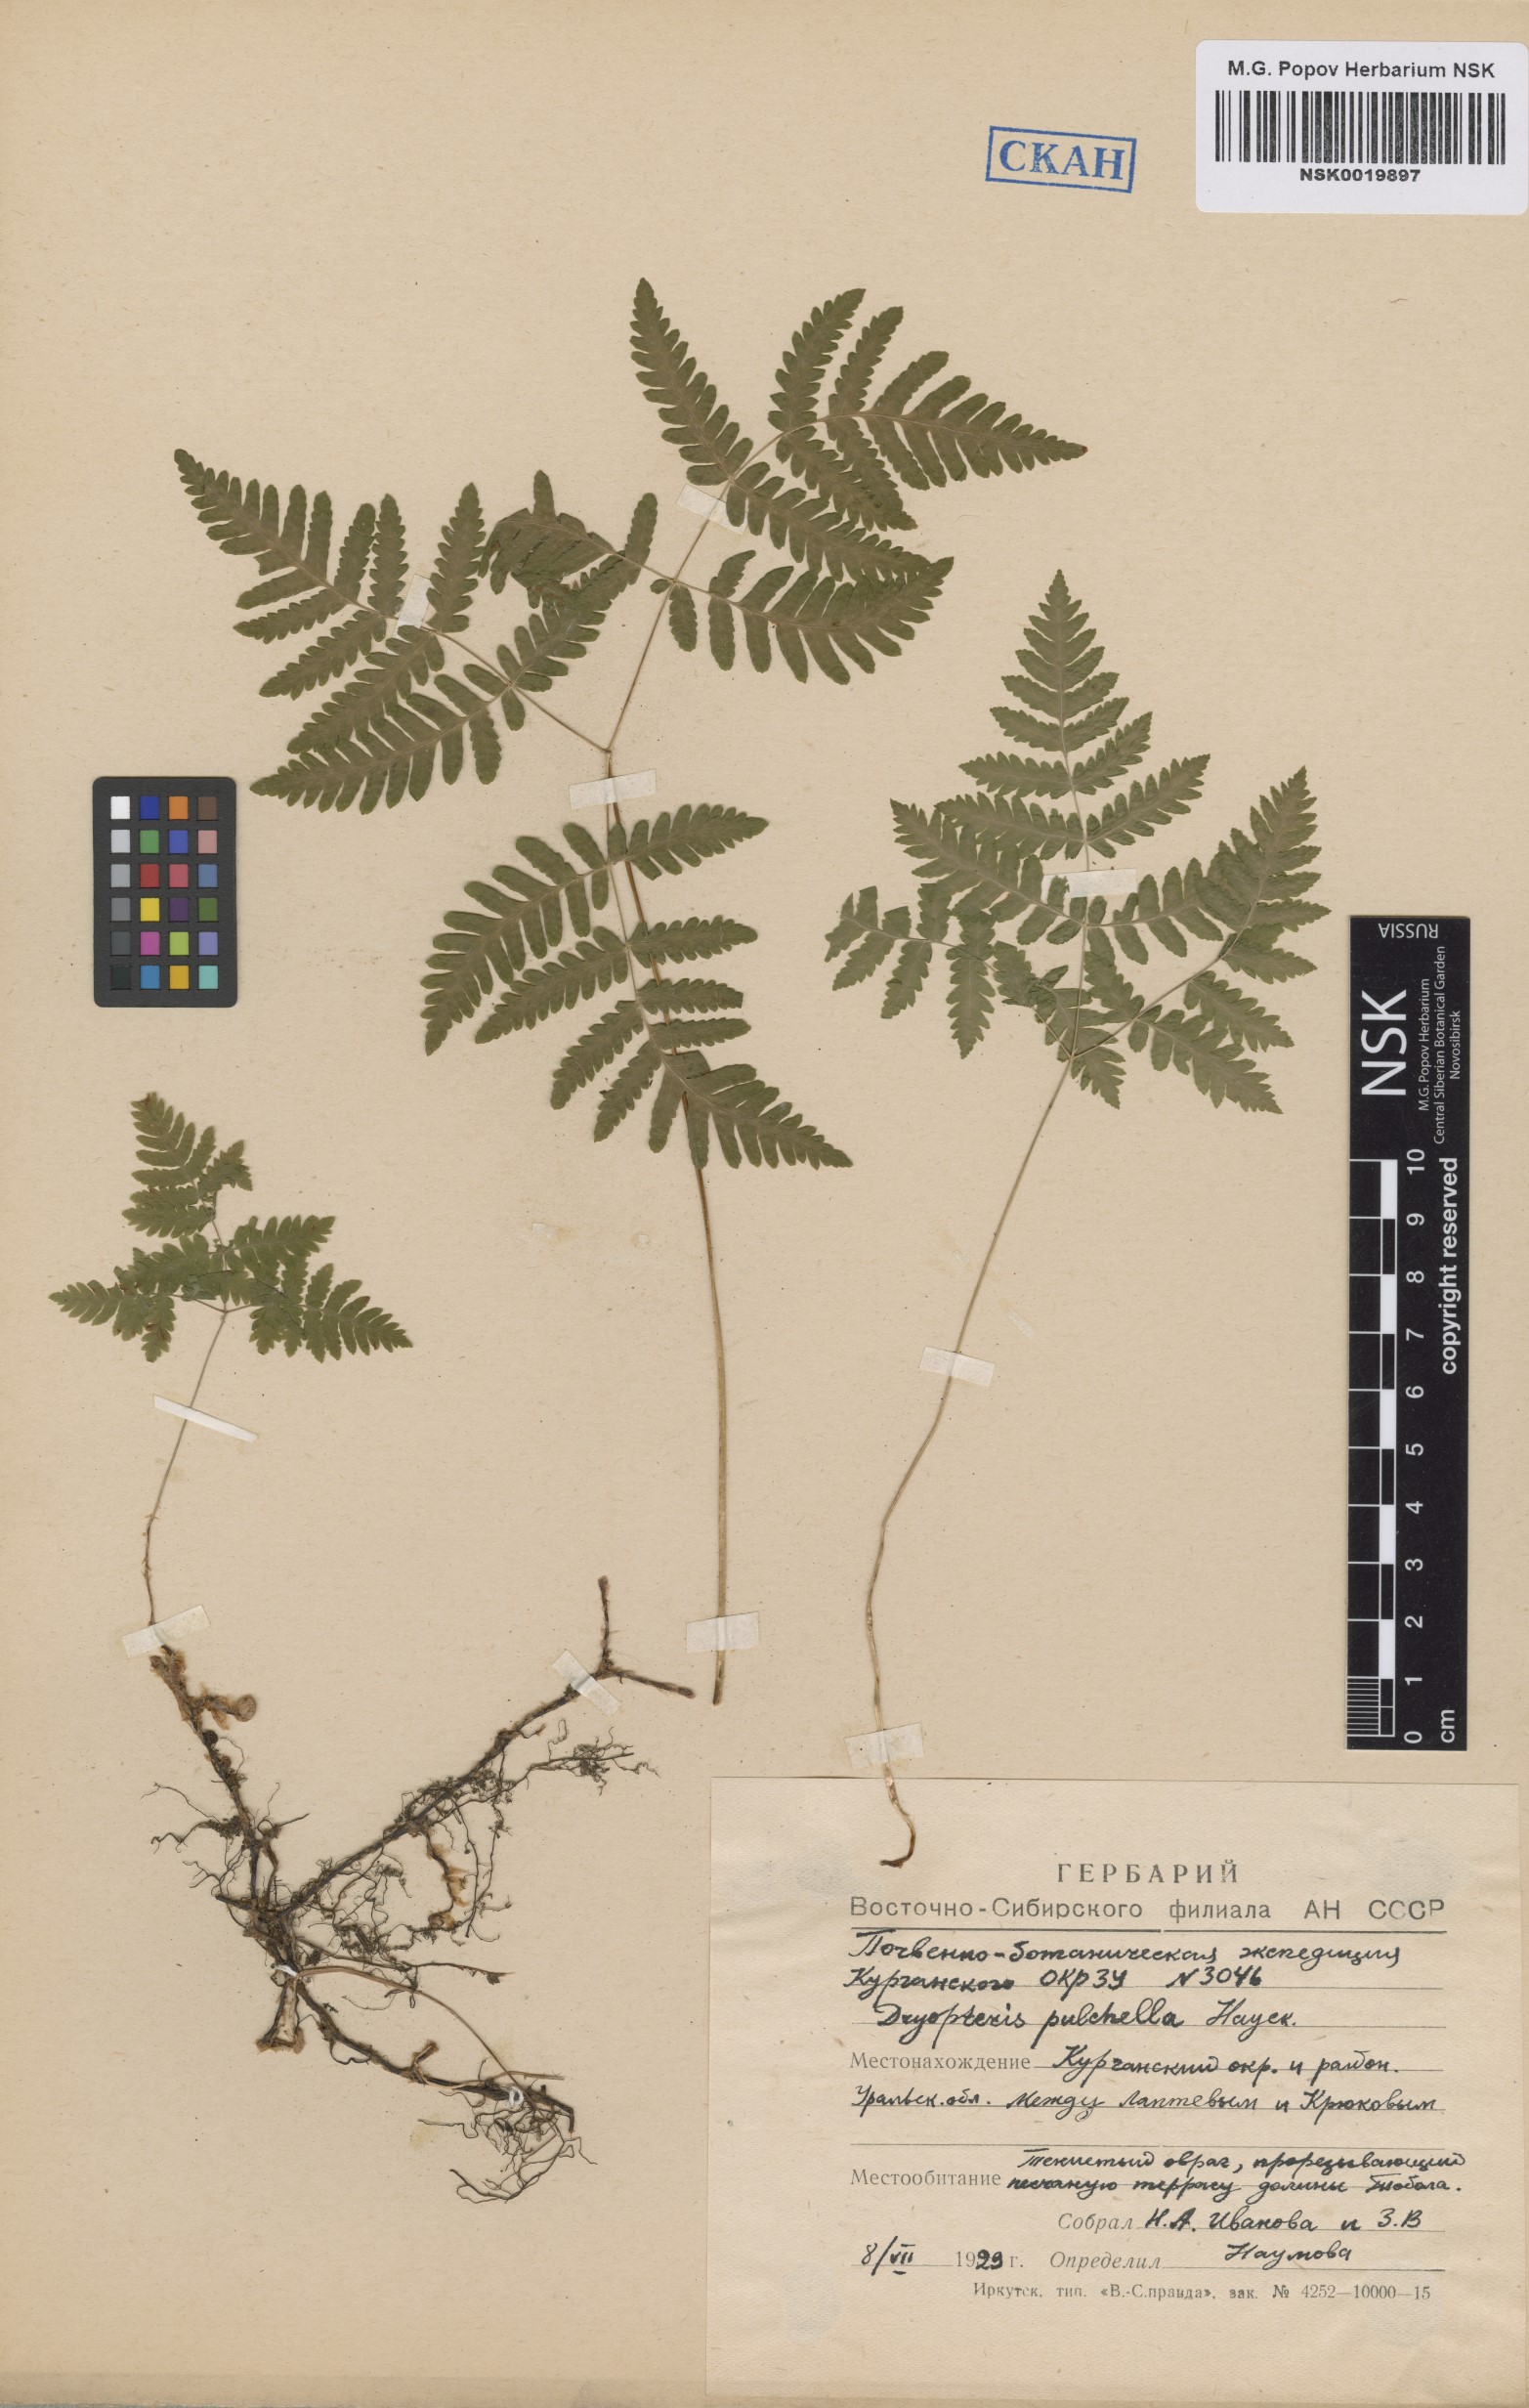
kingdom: Plantae
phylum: Tracheophyta
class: Polypodiopsida
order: Polypodiales
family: Cystopteridaceae
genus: Gymnocarpium
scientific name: Gymnocarpium dryopteris
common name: Oak fern
